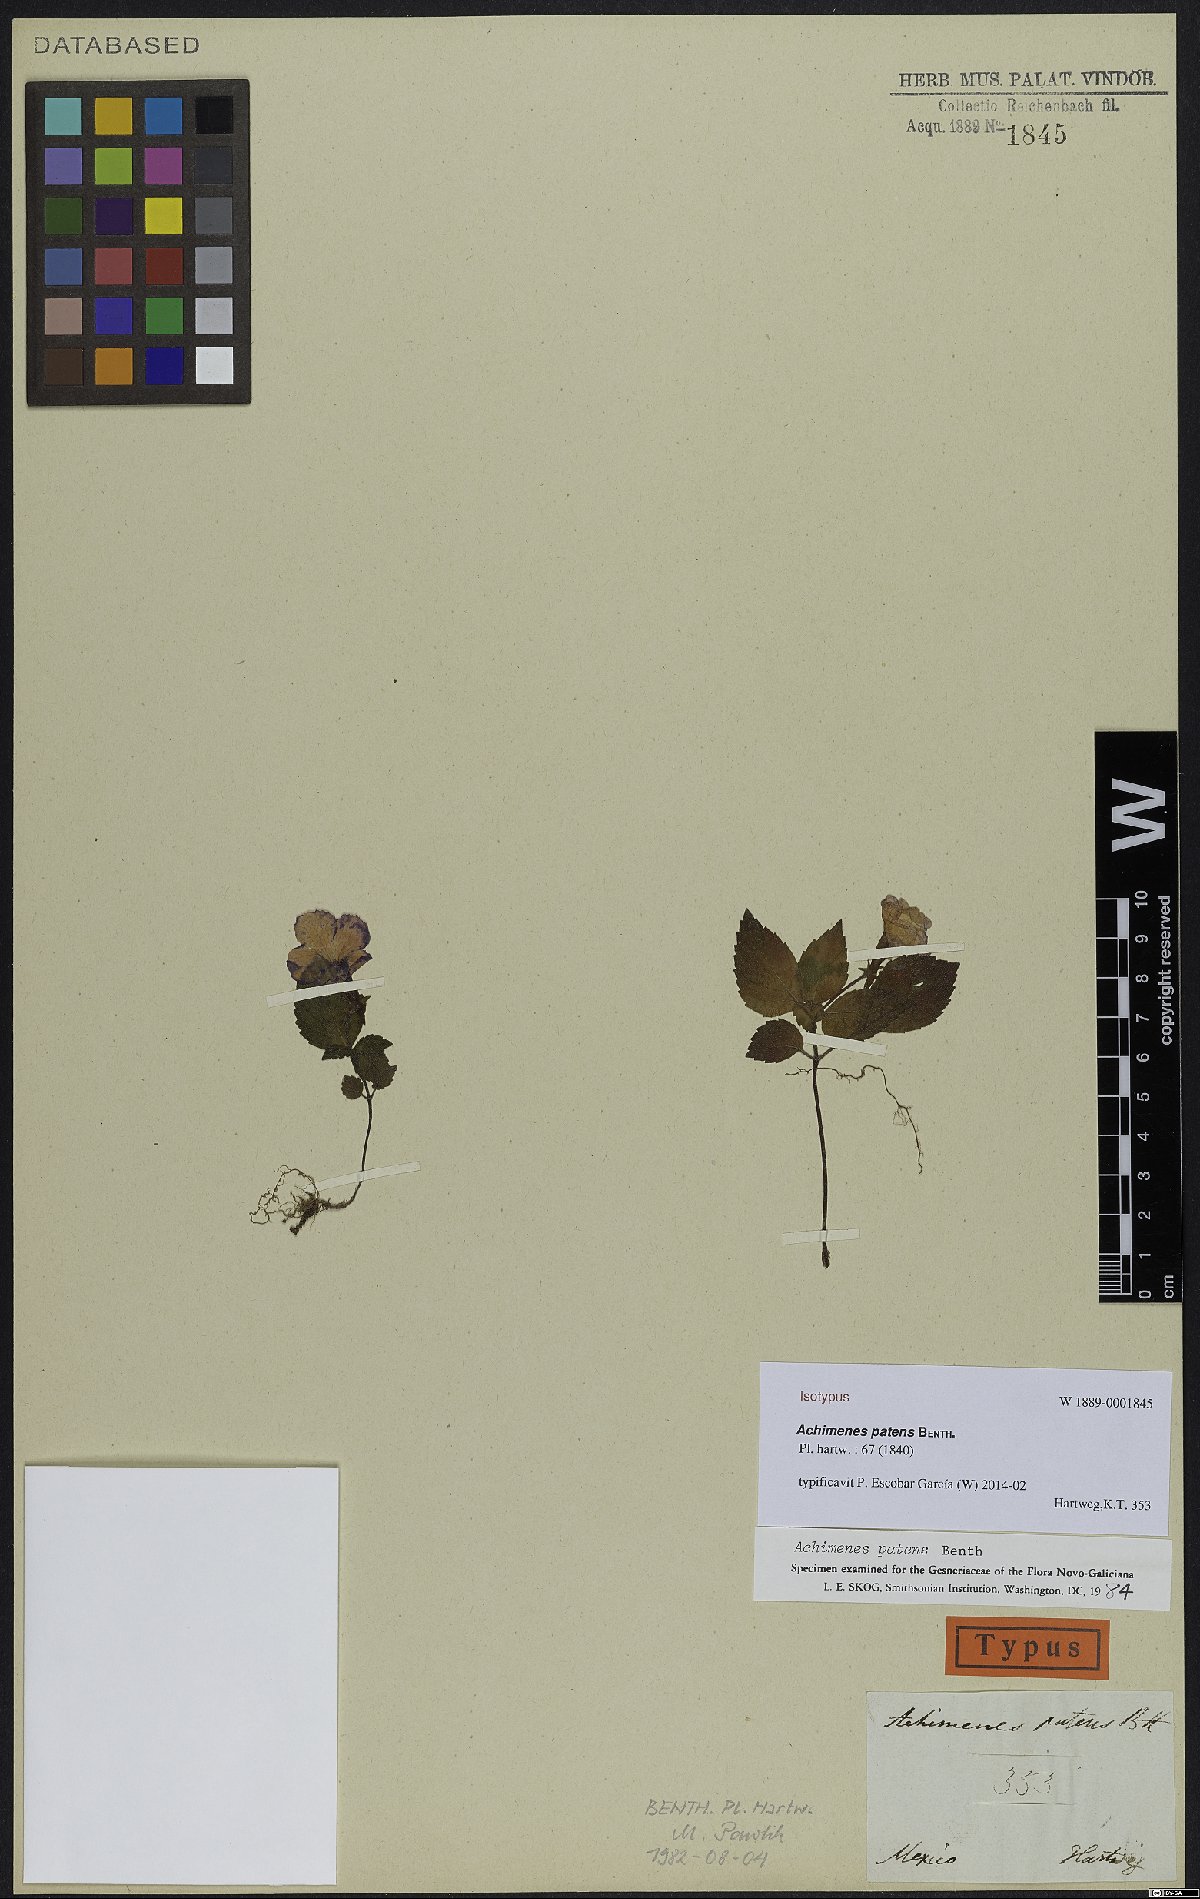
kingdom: Plantae
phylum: Tracheophyta
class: Magnoliopsida
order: Lamiales
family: Gesneriaceae
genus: Achimenes
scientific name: Achimenes patens
